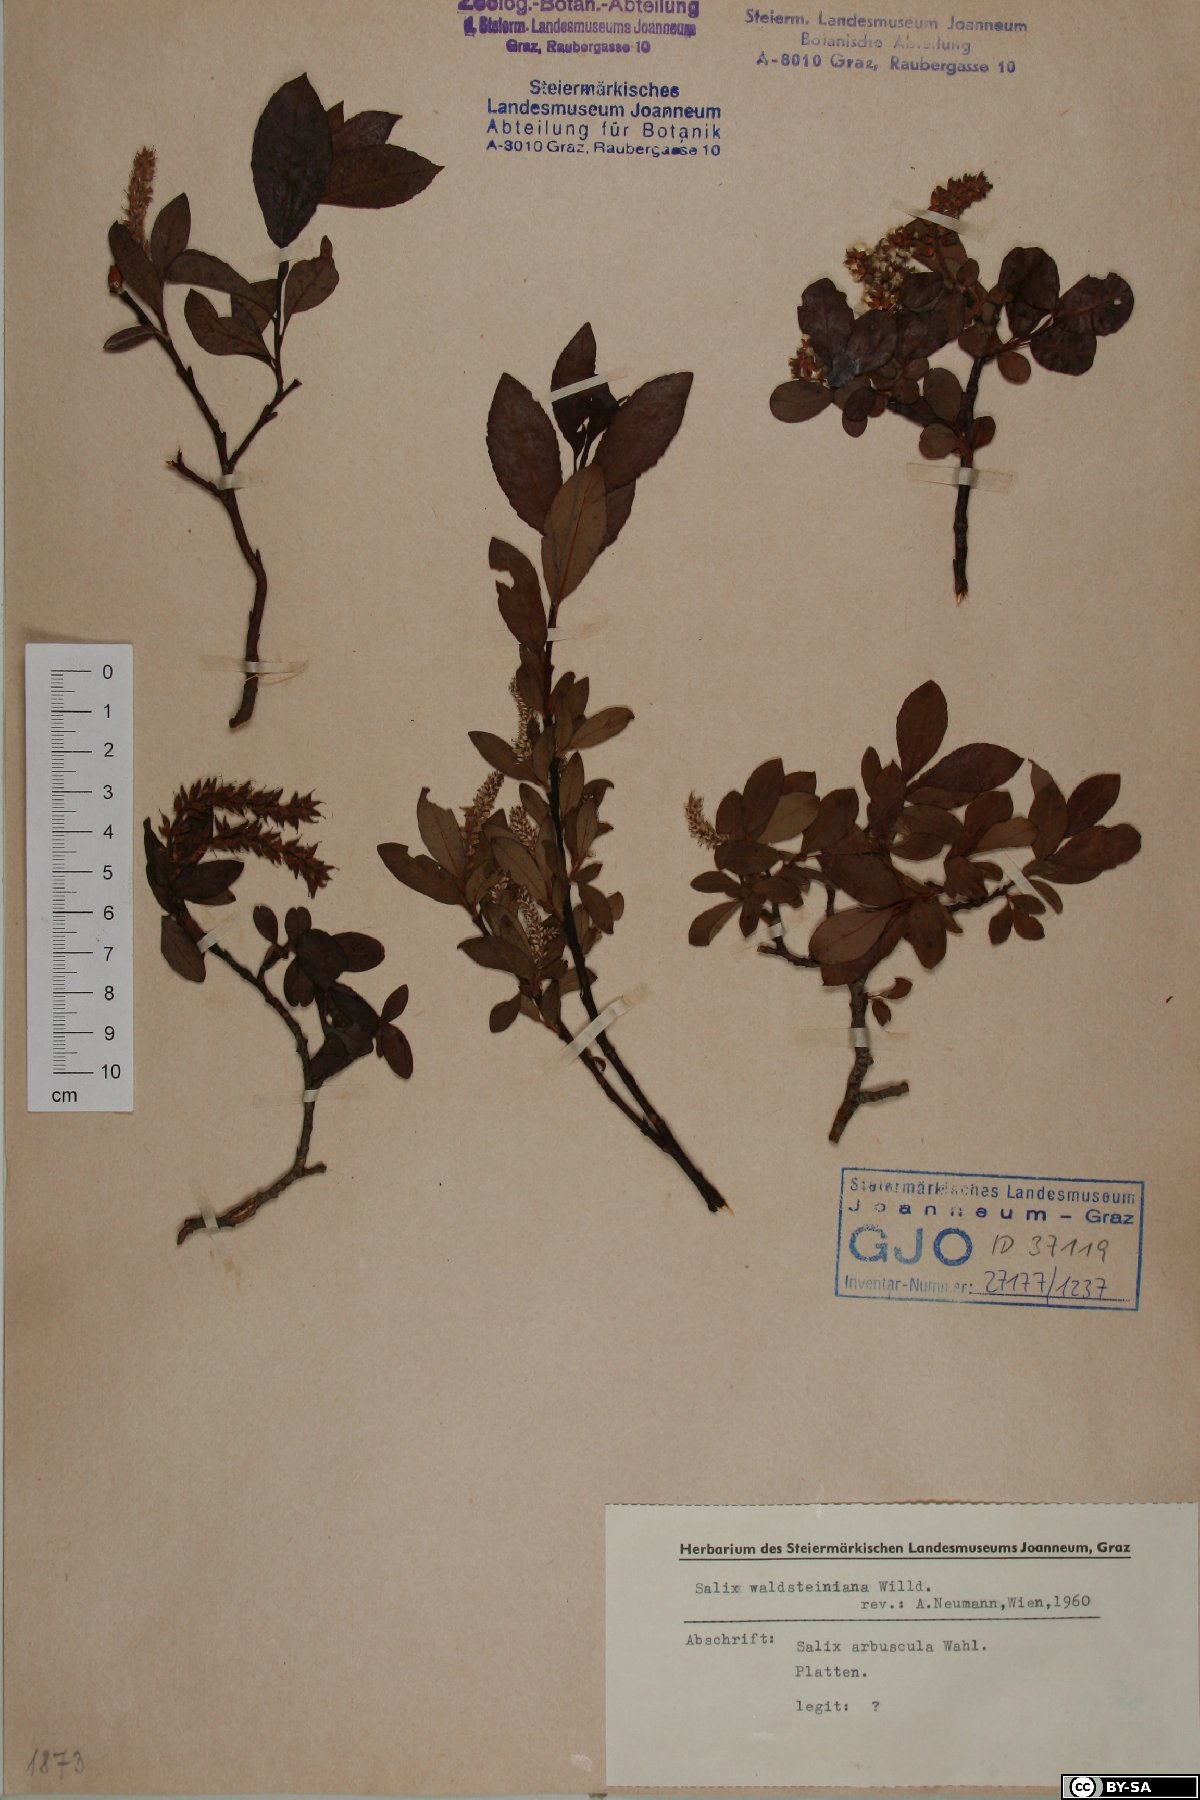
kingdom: Plantae
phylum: Tracheophyta
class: Magnoliopsida
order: Malpighiales
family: Salicaceae
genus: Salix
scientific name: Salix waldsteiniana
